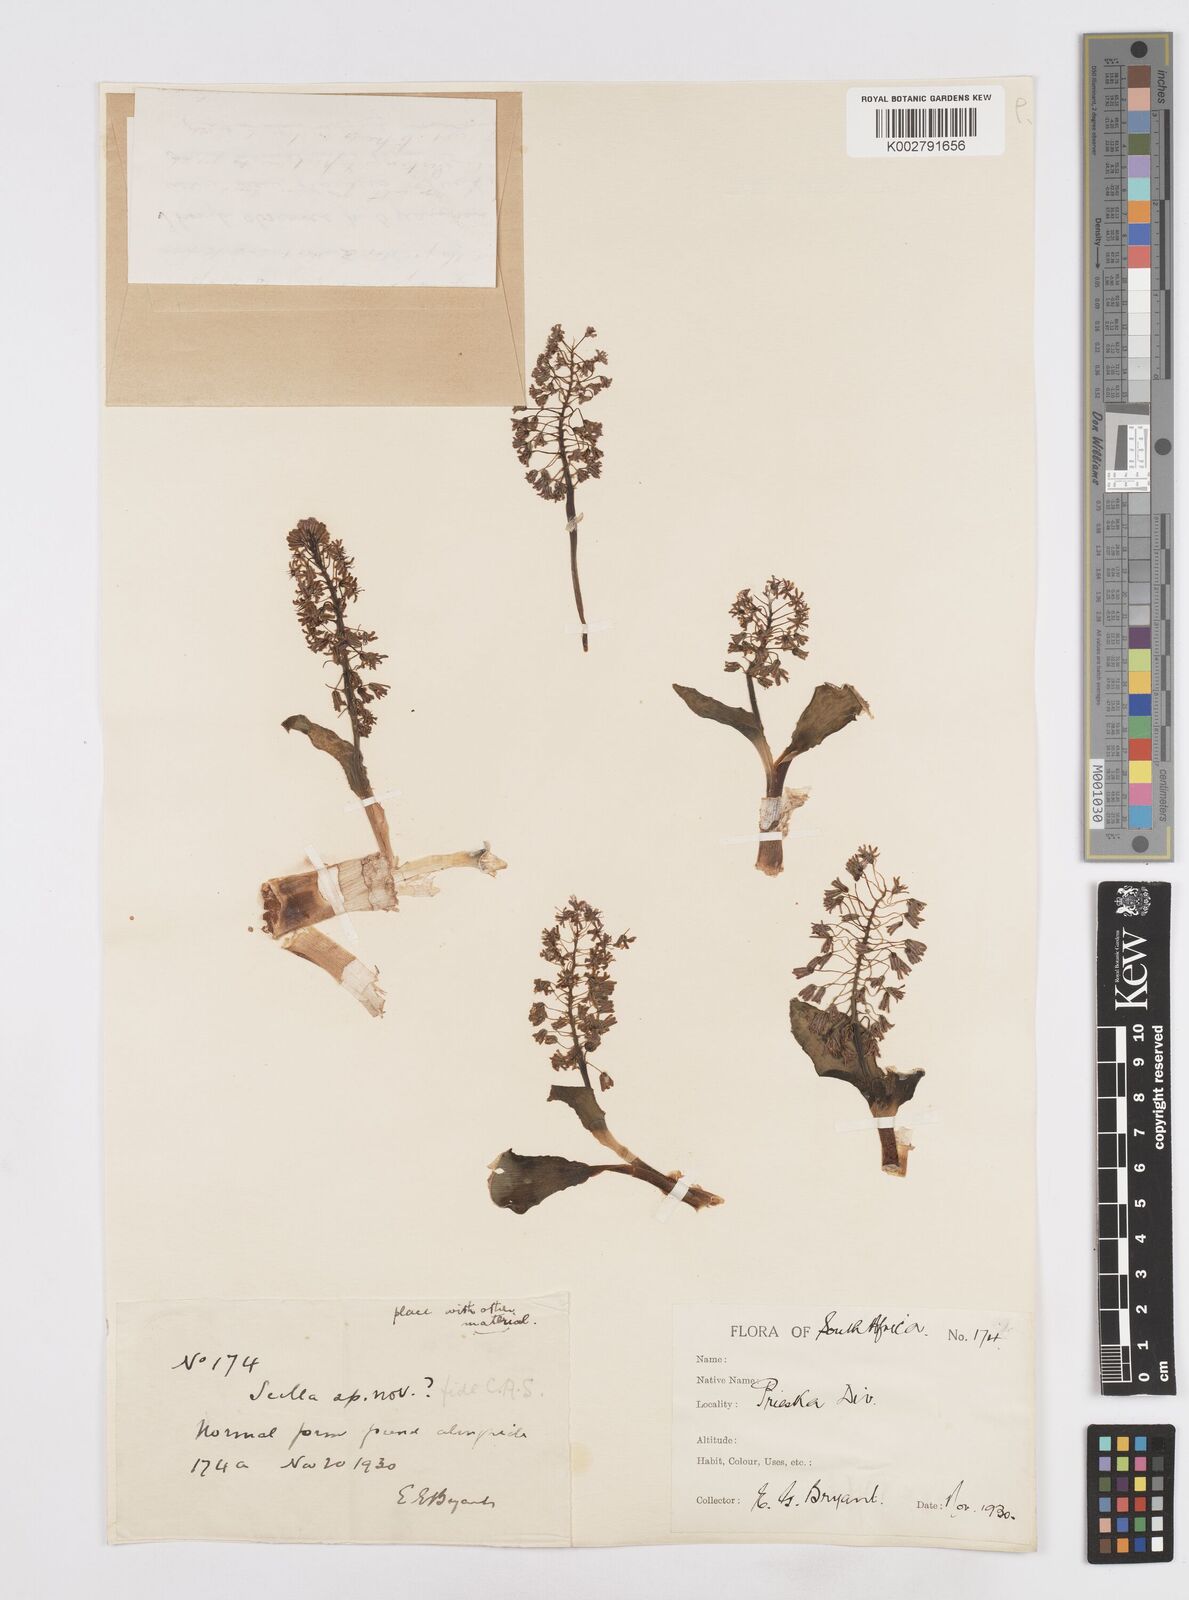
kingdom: Plantae
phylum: Tracheophyta
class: Liliopsida
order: Asparagales
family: Asparagaceae
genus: Scilla
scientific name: Scilla
